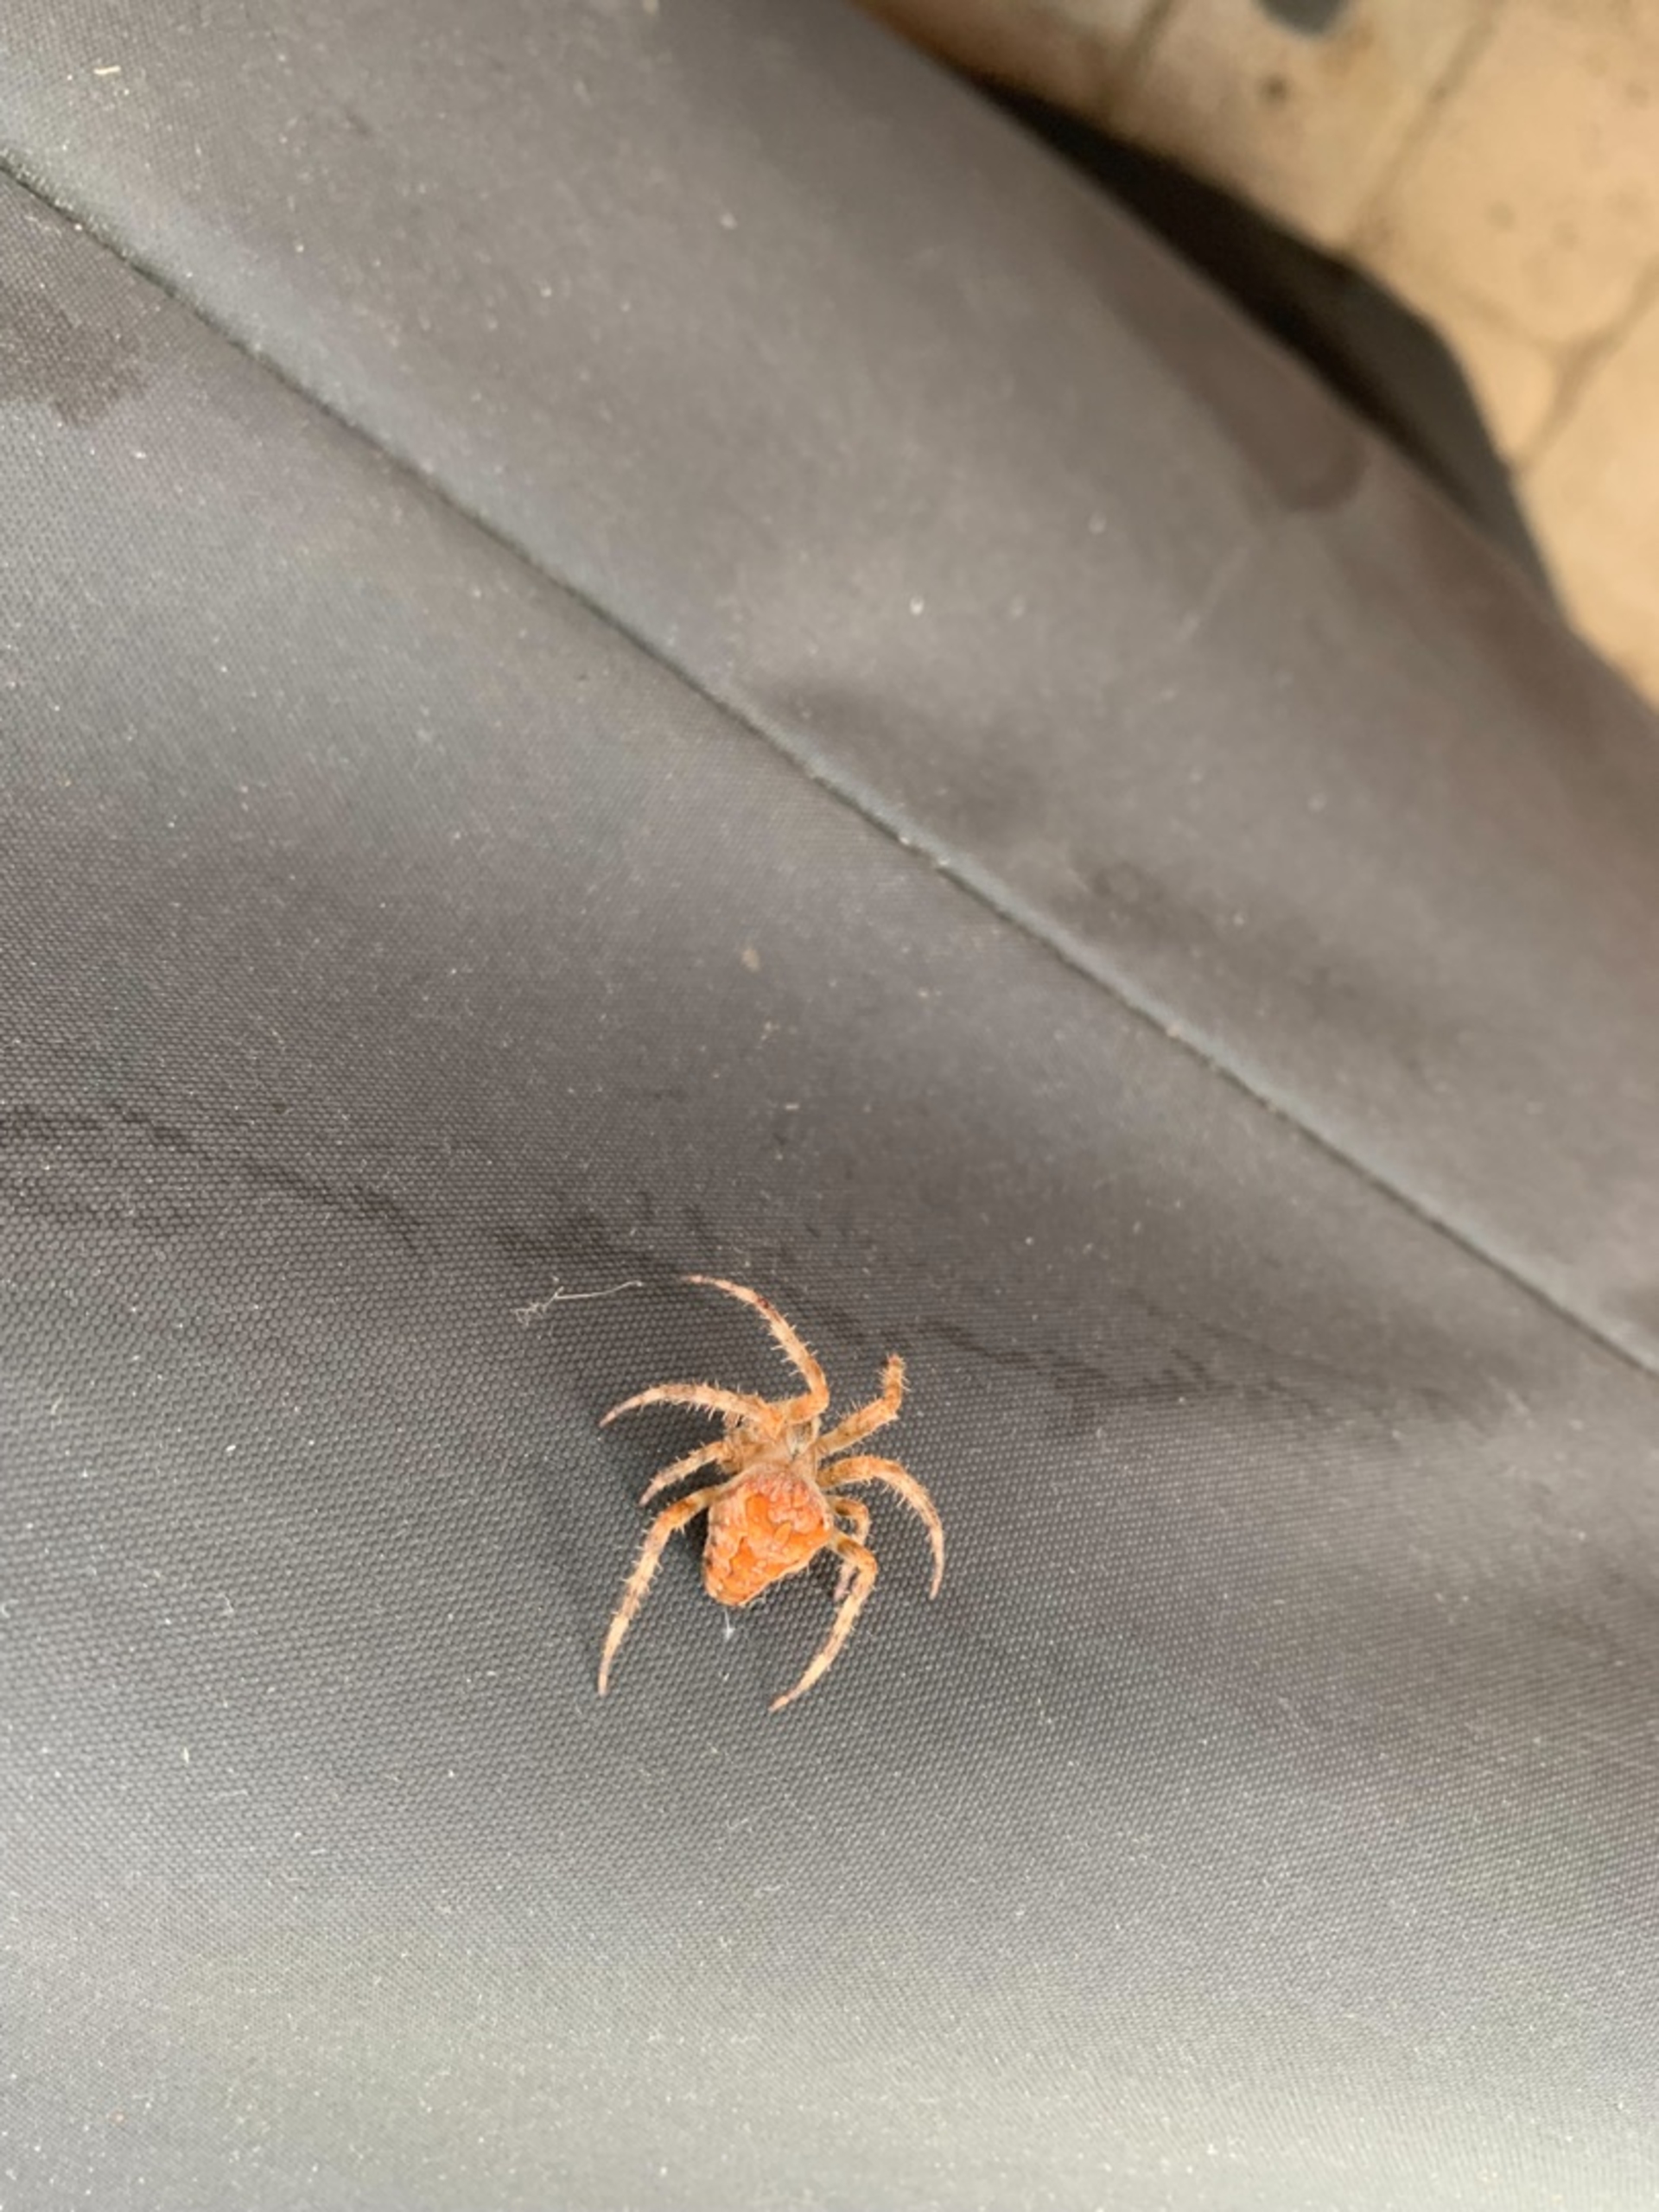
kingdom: Animalia
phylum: Arthropoda
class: Arachnida
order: Araneae
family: Araneidae
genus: Araneus
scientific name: Araneus diadematus
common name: Korsedderkop
